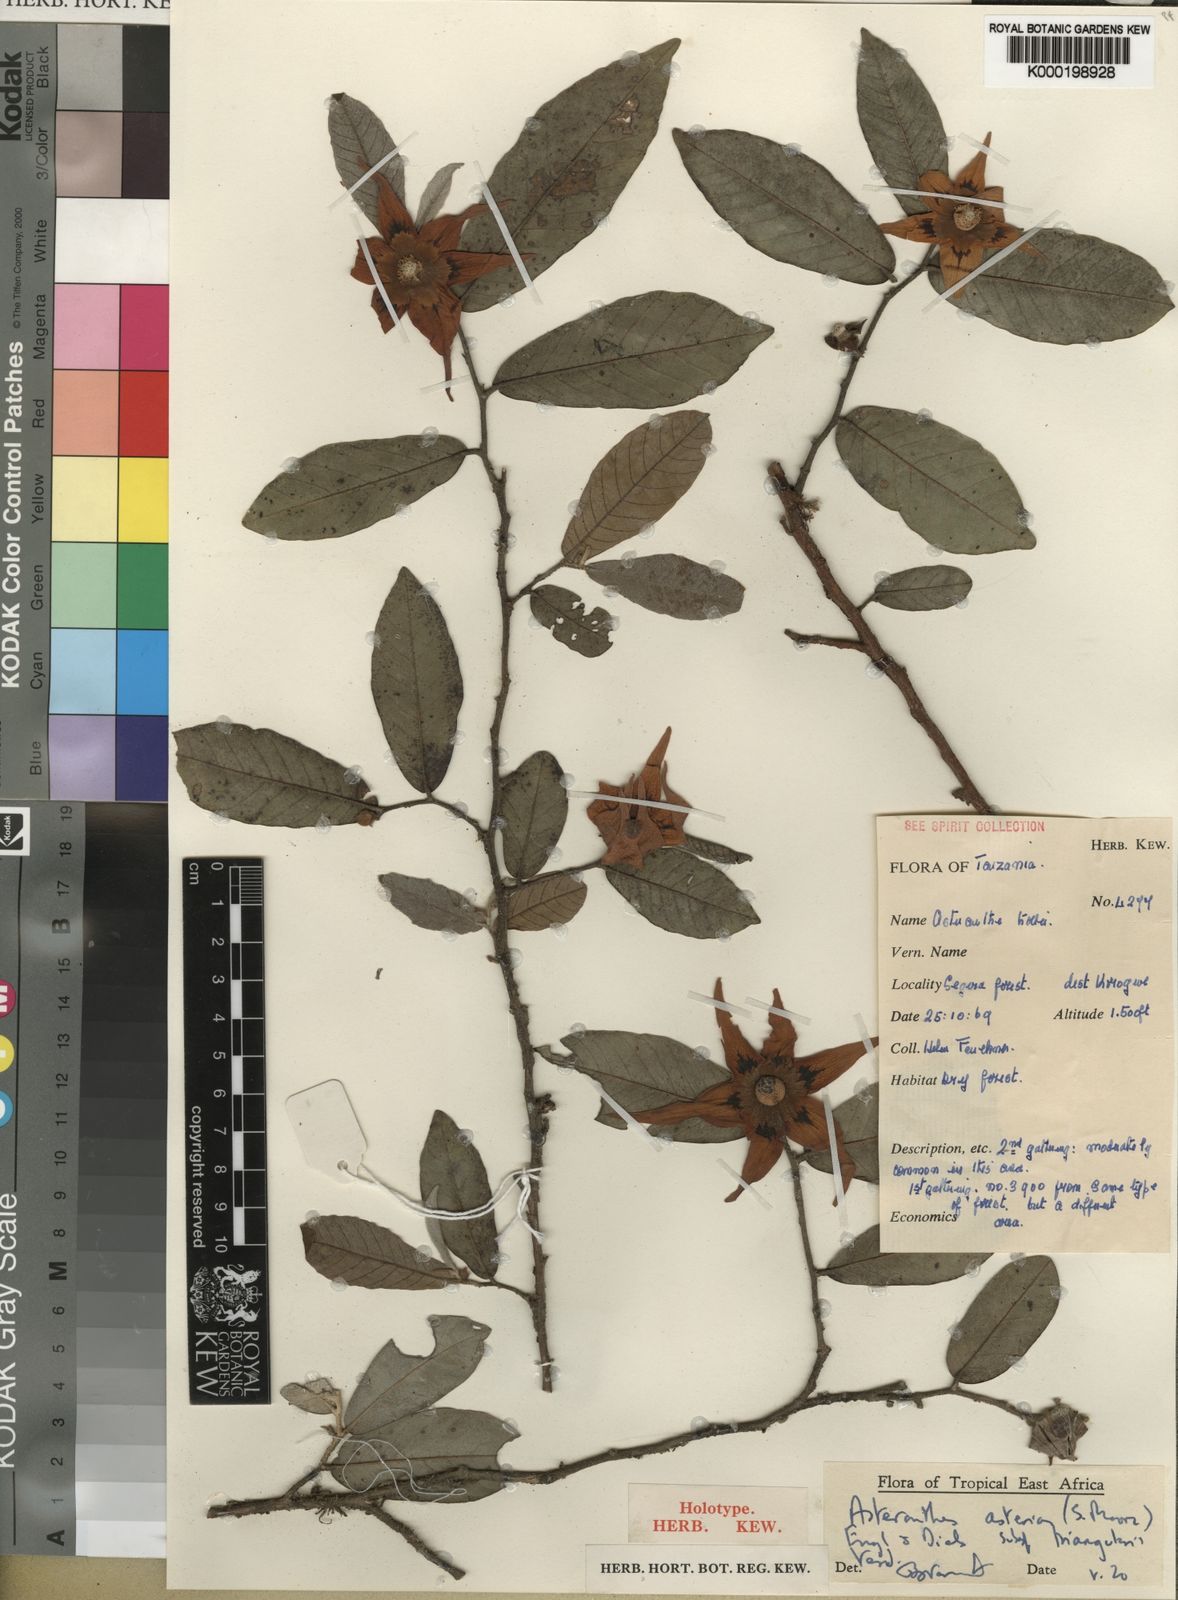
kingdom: Plantae
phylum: Tracheophyta
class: Magnoliopsida
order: Magnoliales
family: Annonaceae
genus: Asteranthe
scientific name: Asteranthe asterias
